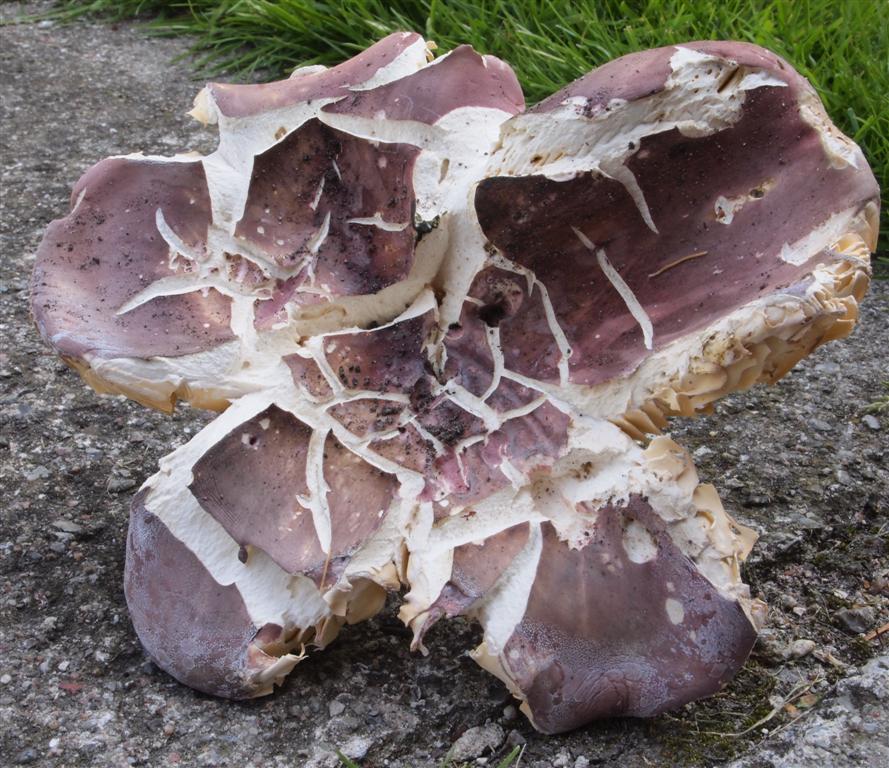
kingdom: Fungi
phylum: Basidiomycota
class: Agaricomycetes
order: Russulales
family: Russulaceae
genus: Russula
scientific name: Russula olivacea
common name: stor skørhat
